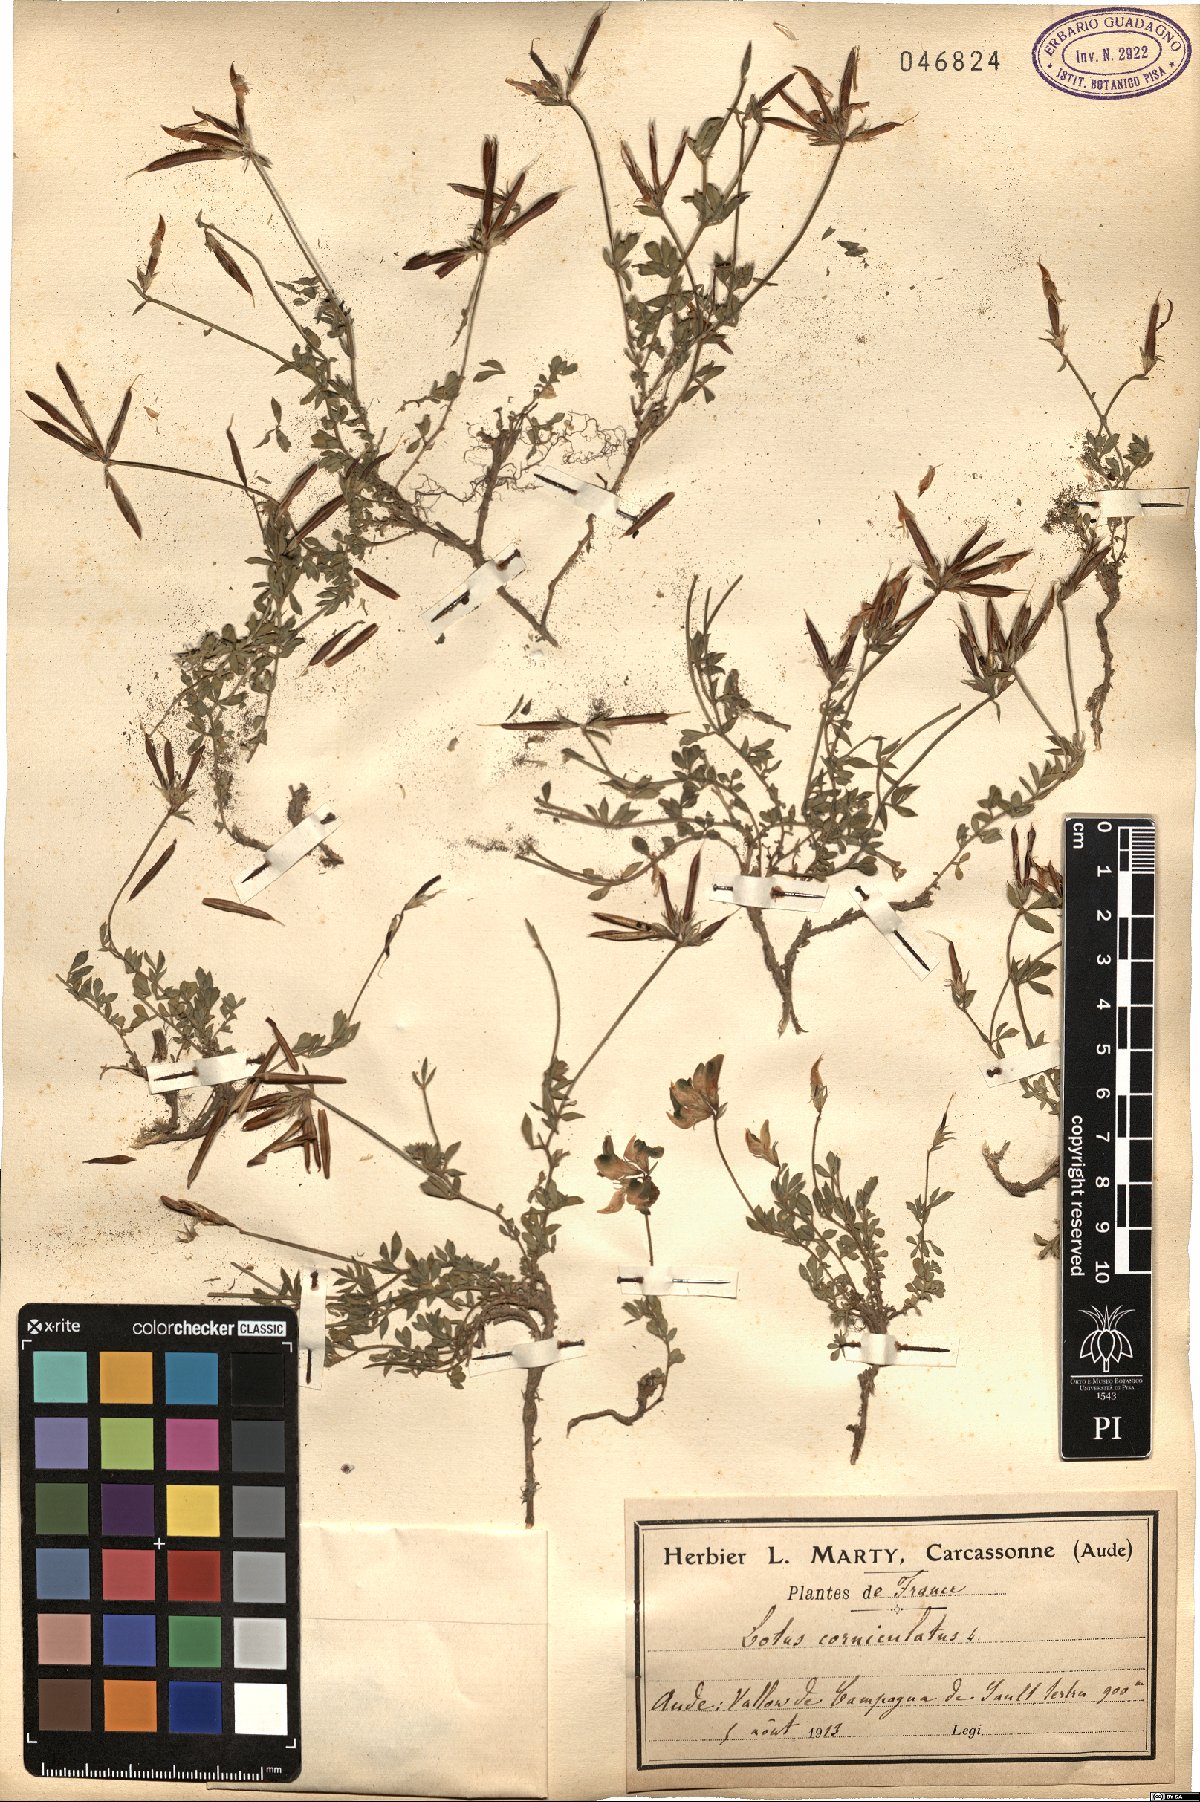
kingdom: Plantae
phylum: Tracheophyta
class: Magnoliopsida
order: Fabales
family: Fabaceae
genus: Lotus
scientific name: Lotus corniculatus
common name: Common bird's-foot-trefoil
